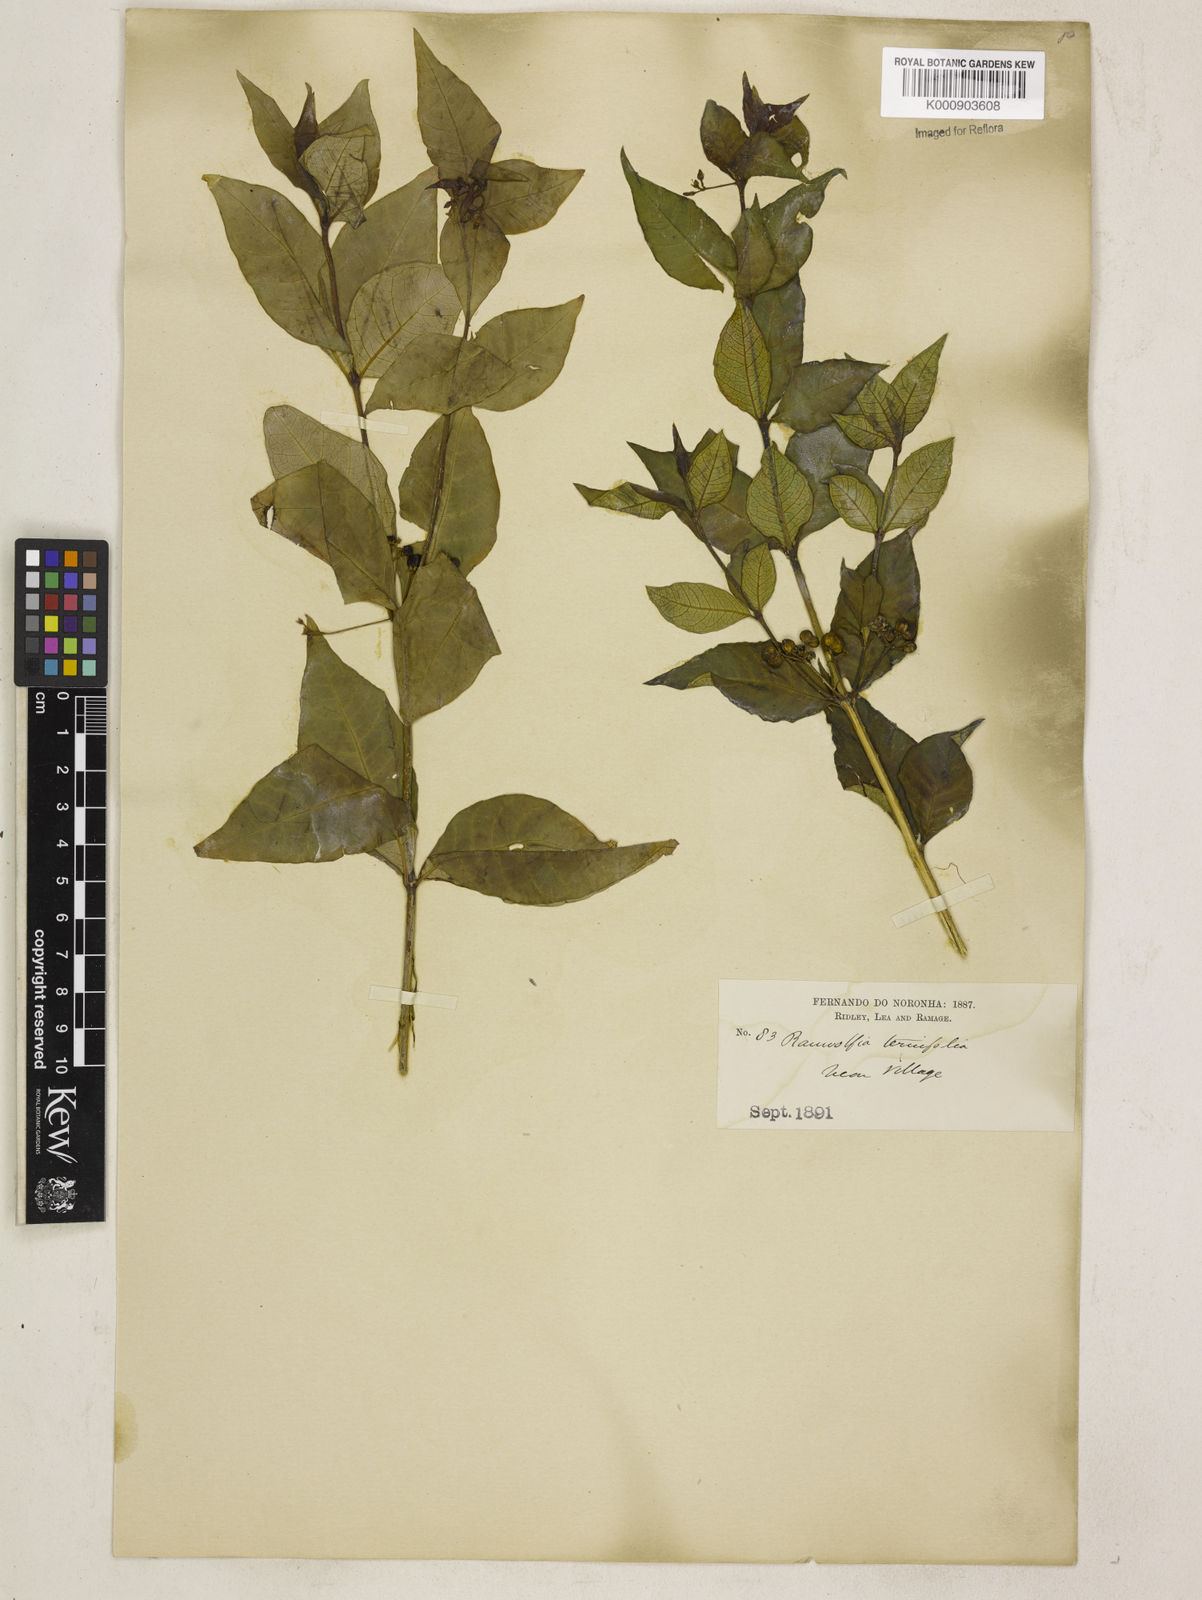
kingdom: Plantae
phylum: Tracheophyta
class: Magnoliopsida
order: Gentianales
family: Apocynaceae
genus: Rauvolfia
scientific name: Rauvolfia
